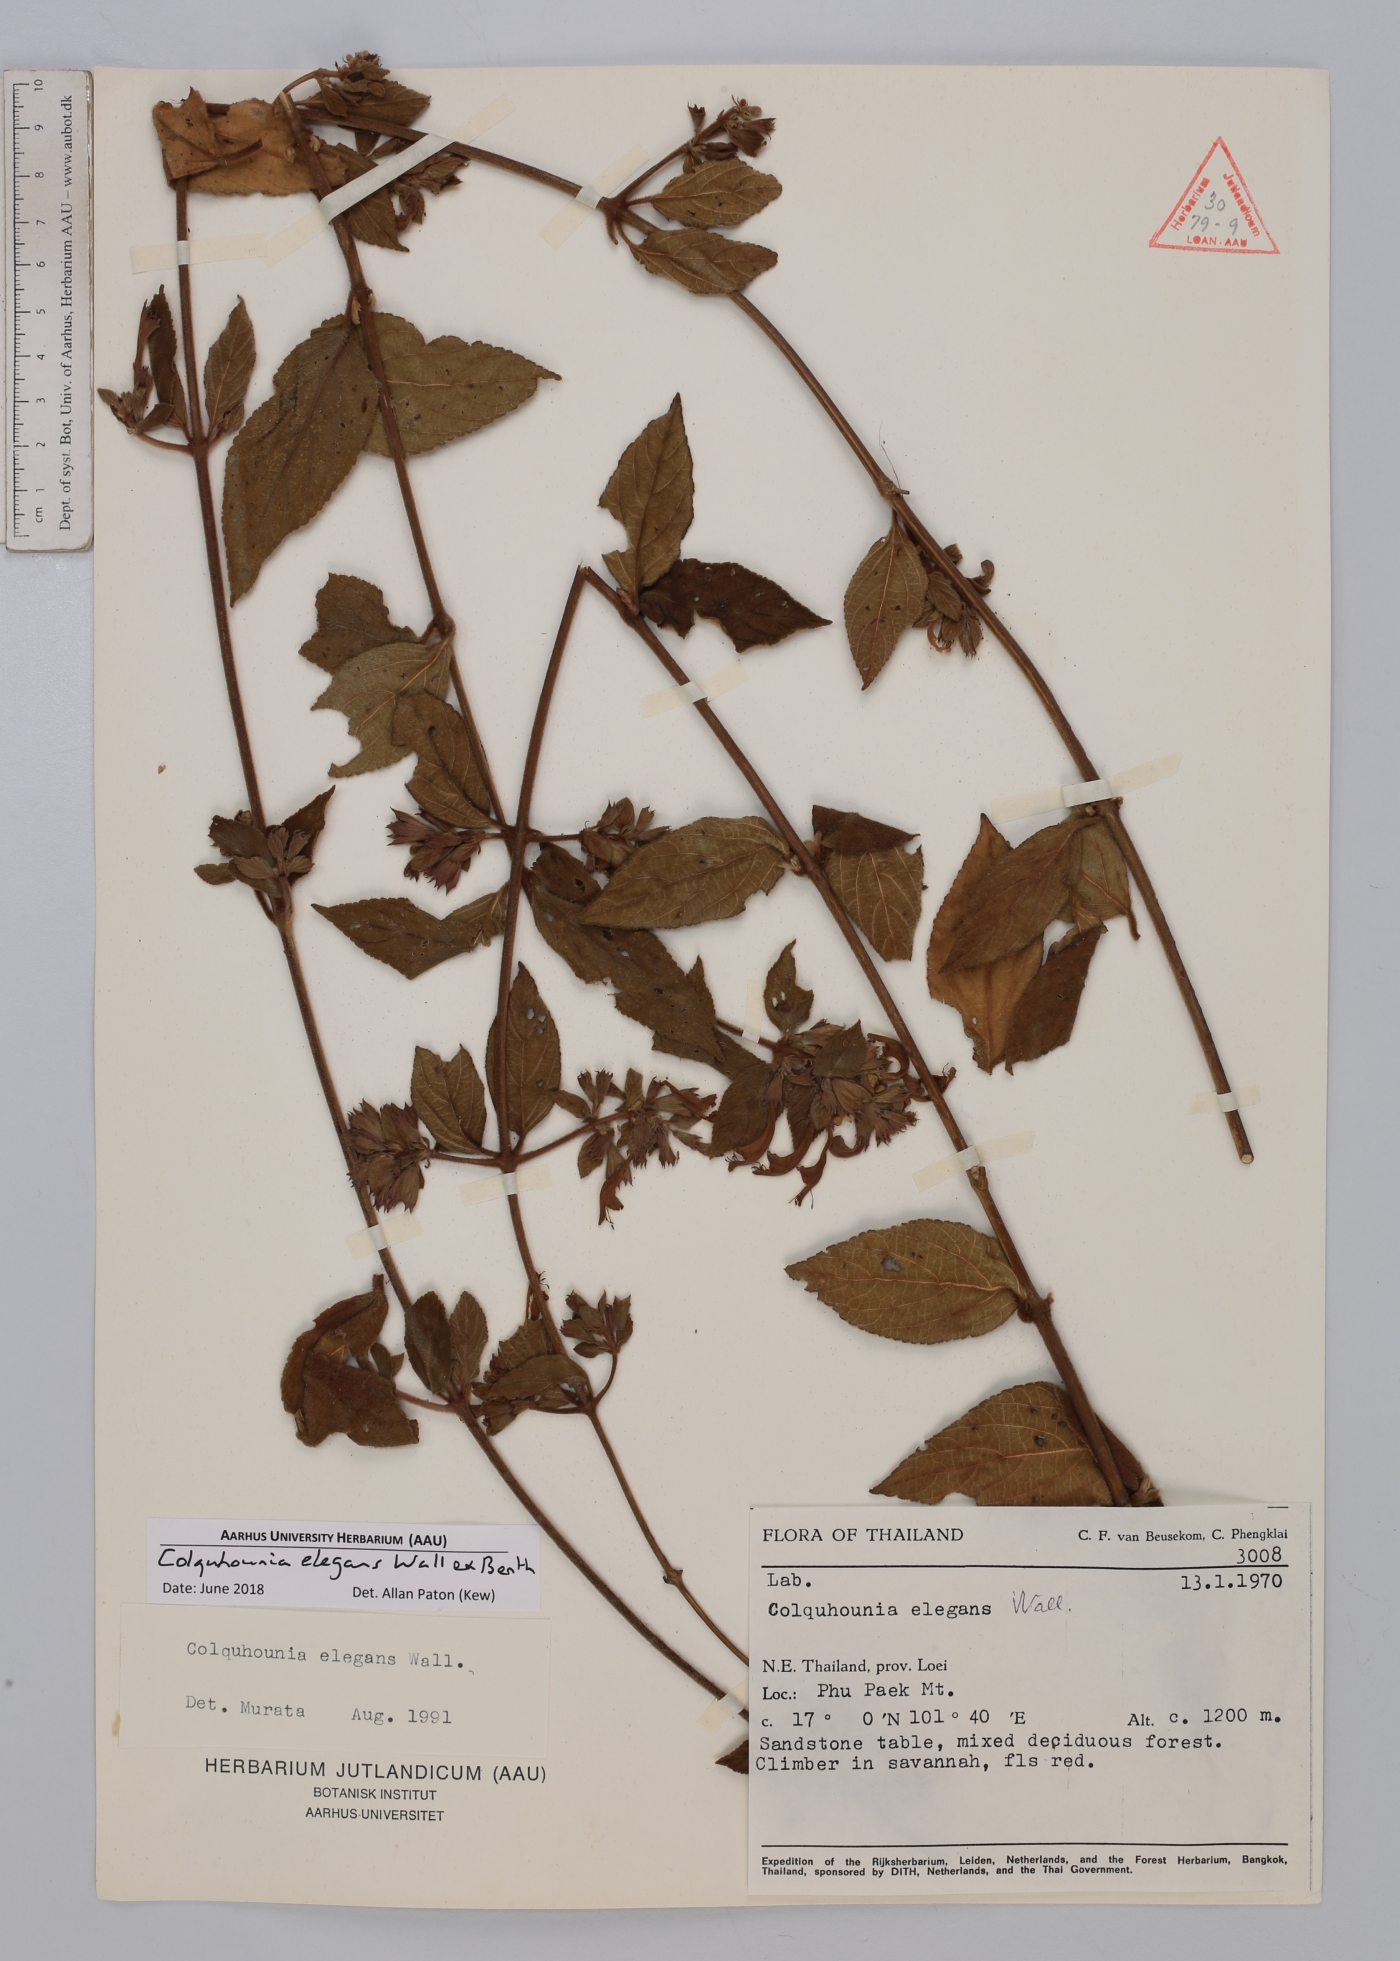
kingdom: Plantae
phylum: Tracheophyta
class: Magnoliopsida
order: Lamiales
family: Lamiaceae
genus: Colquhounia
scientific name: Colquhounia elegans
